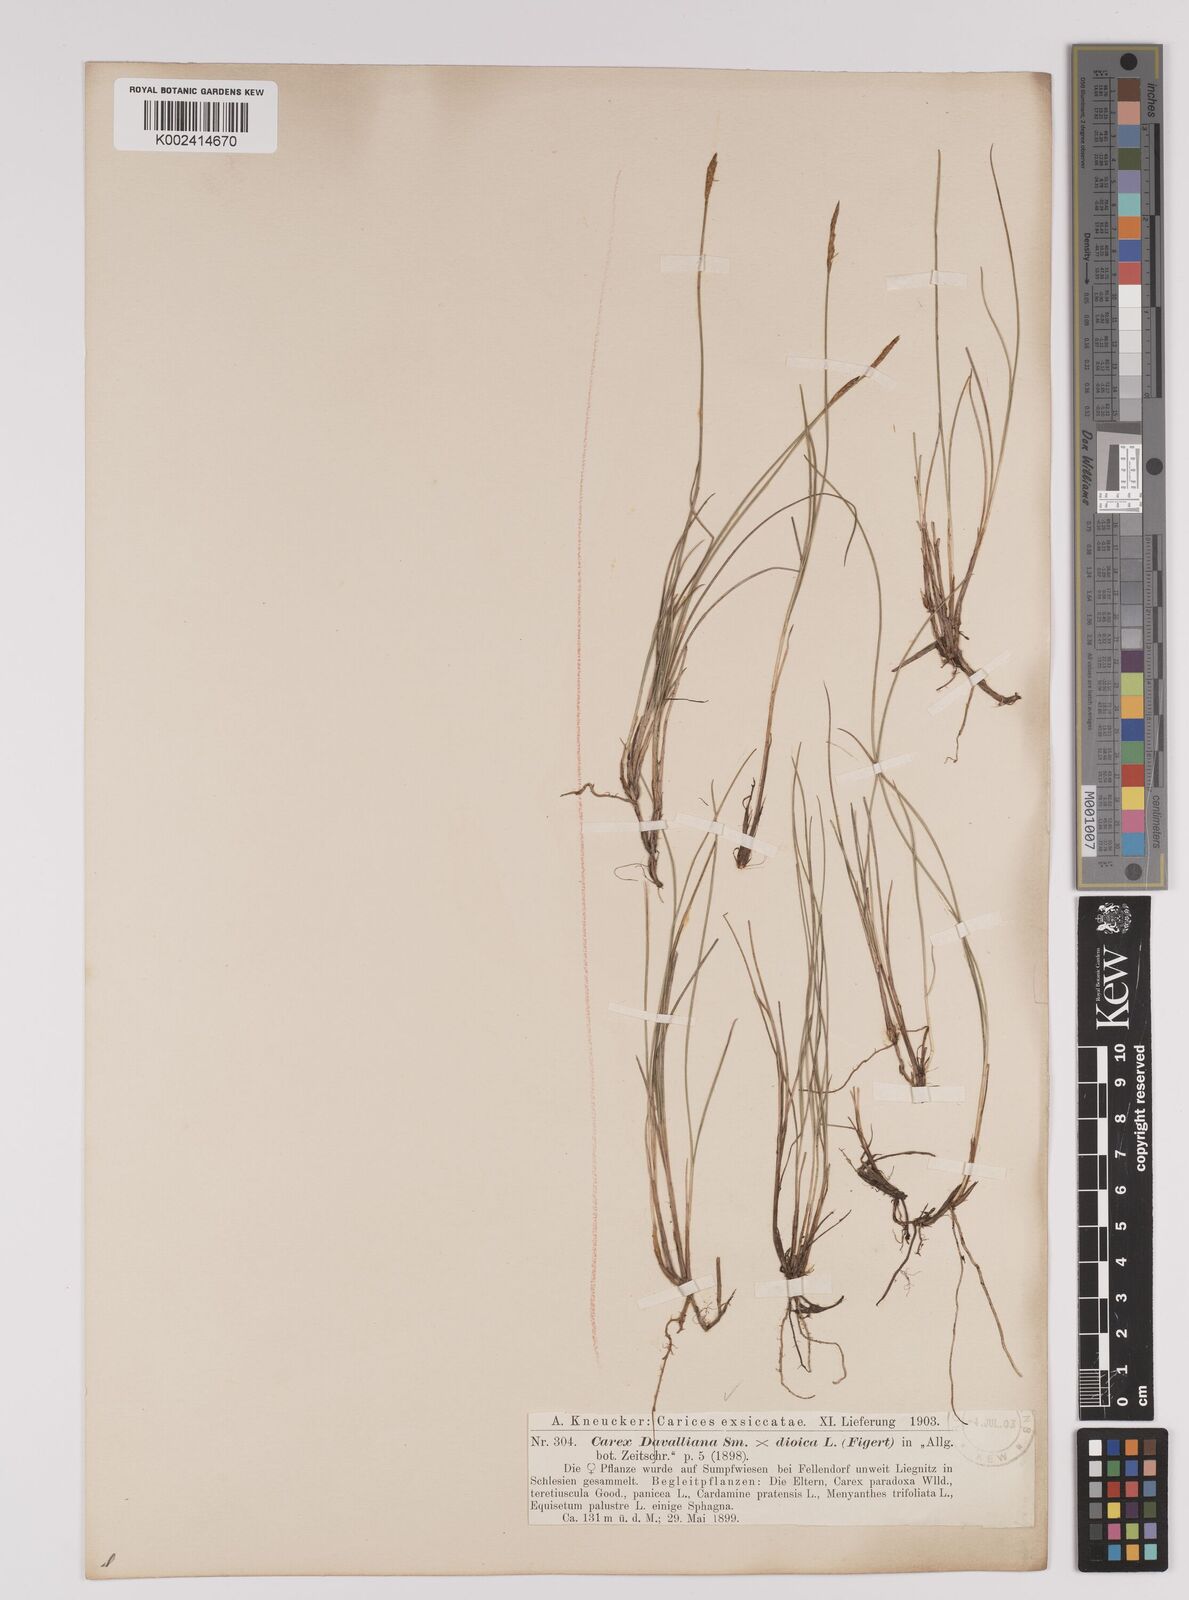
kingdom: Plantae
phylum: Tracheophyta
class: Liliopsida
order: Poales
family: Cyperaceae
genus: Carex
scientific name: Carex davalliana
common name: Davall's sedge
